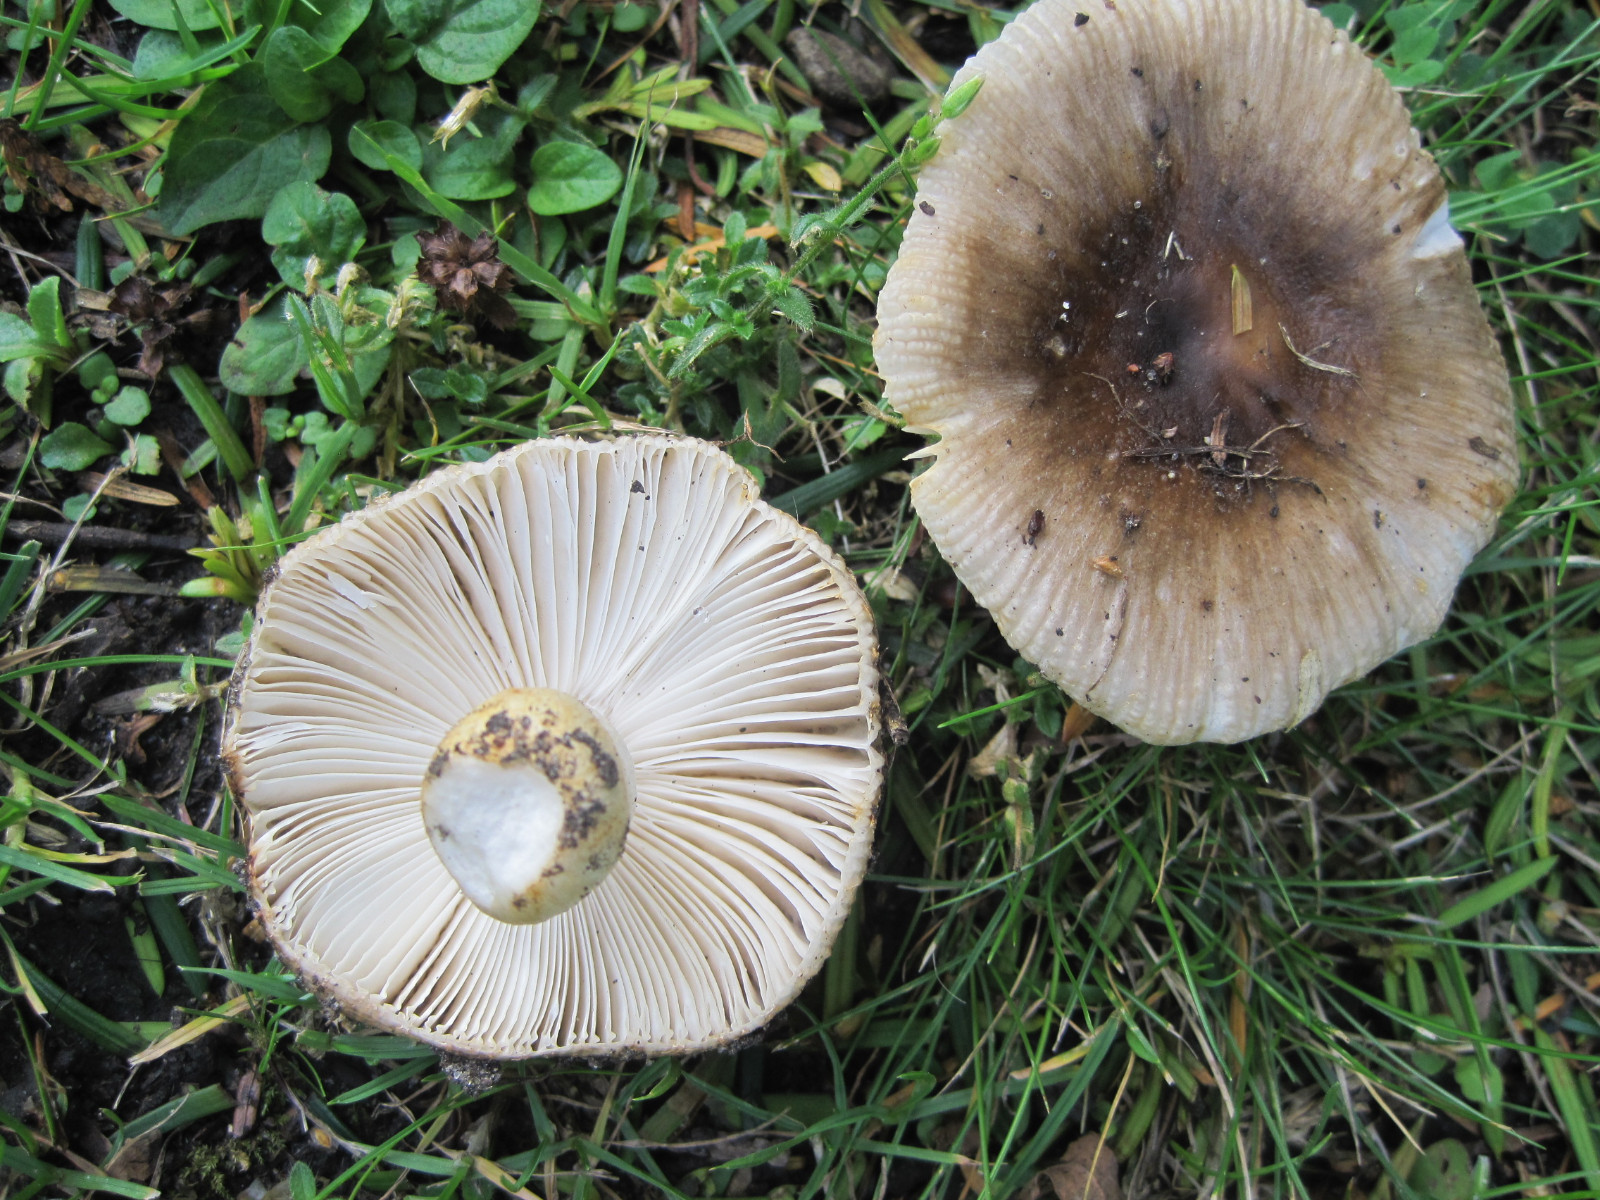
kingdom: Fungi
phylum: Basidiomycota
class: Agaricomycetes
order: Russulales
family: Russulaceae
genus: Russula
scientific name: Russula recondita
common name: mild kam-skørhat
